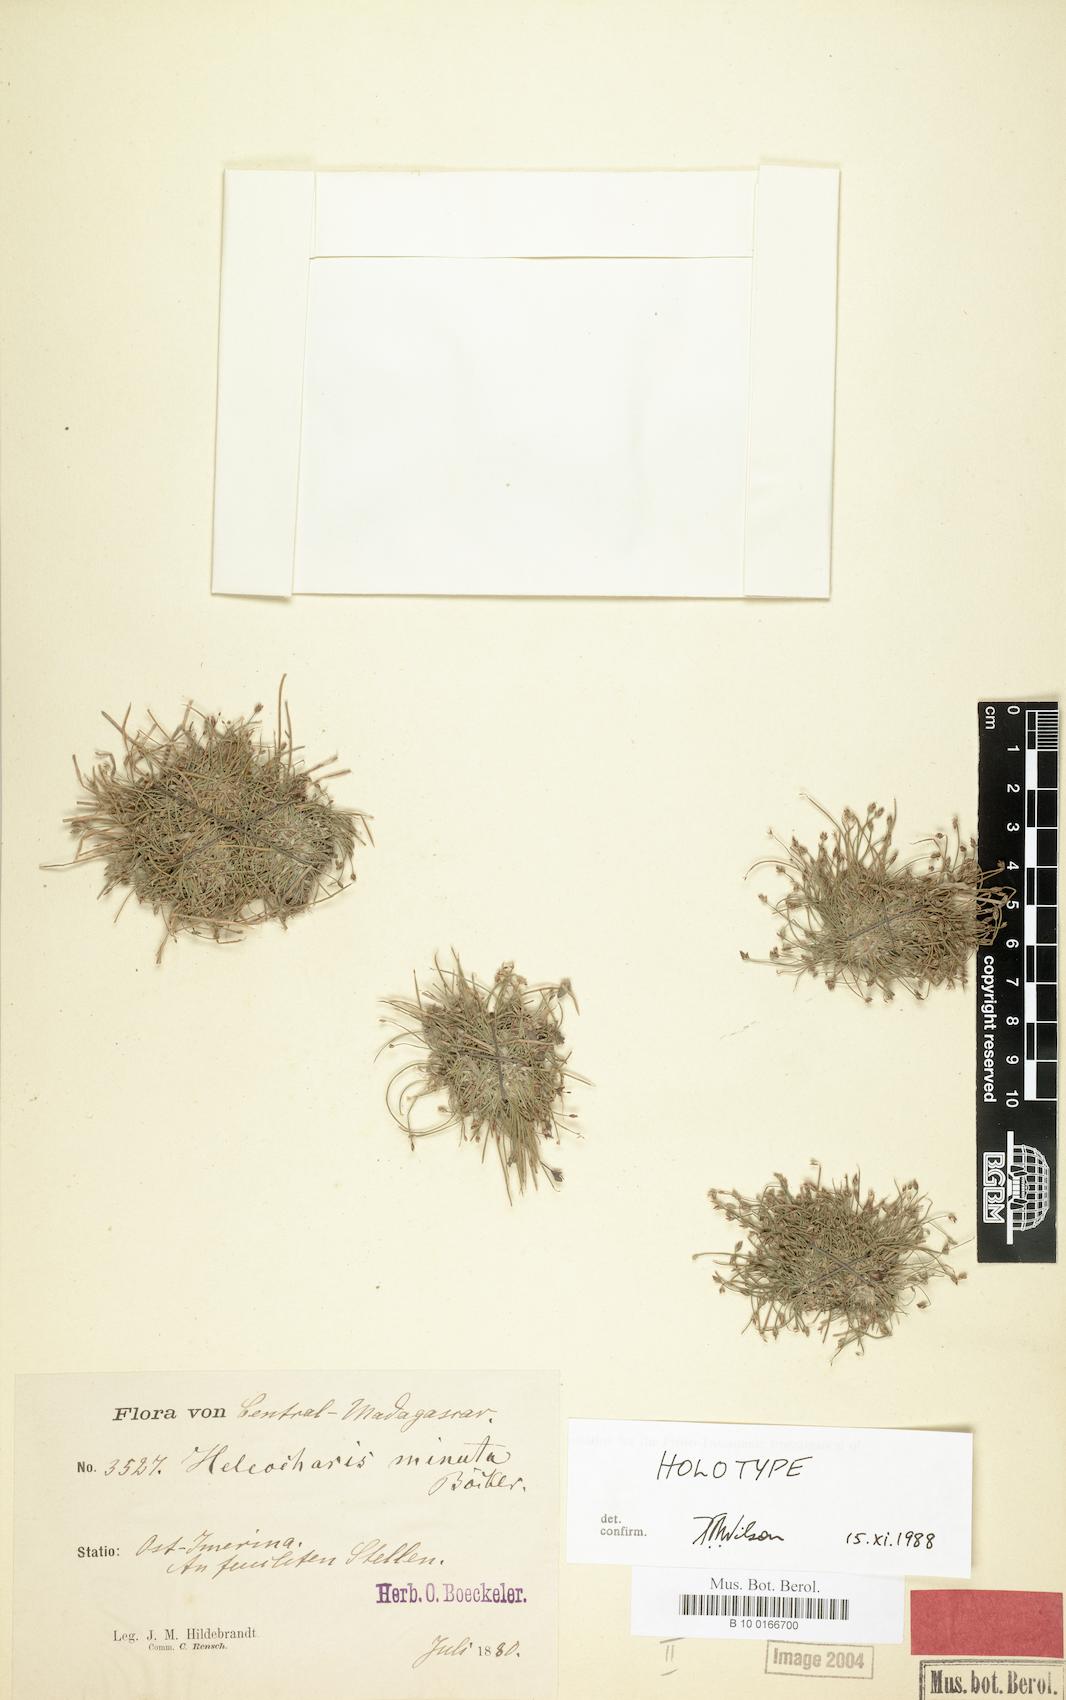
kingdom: Plantae
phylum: Tracheophyta
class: Liliopsida
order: Poales
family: Cyperaceae
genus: Eleocharis
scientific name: Eleocharis minuta
